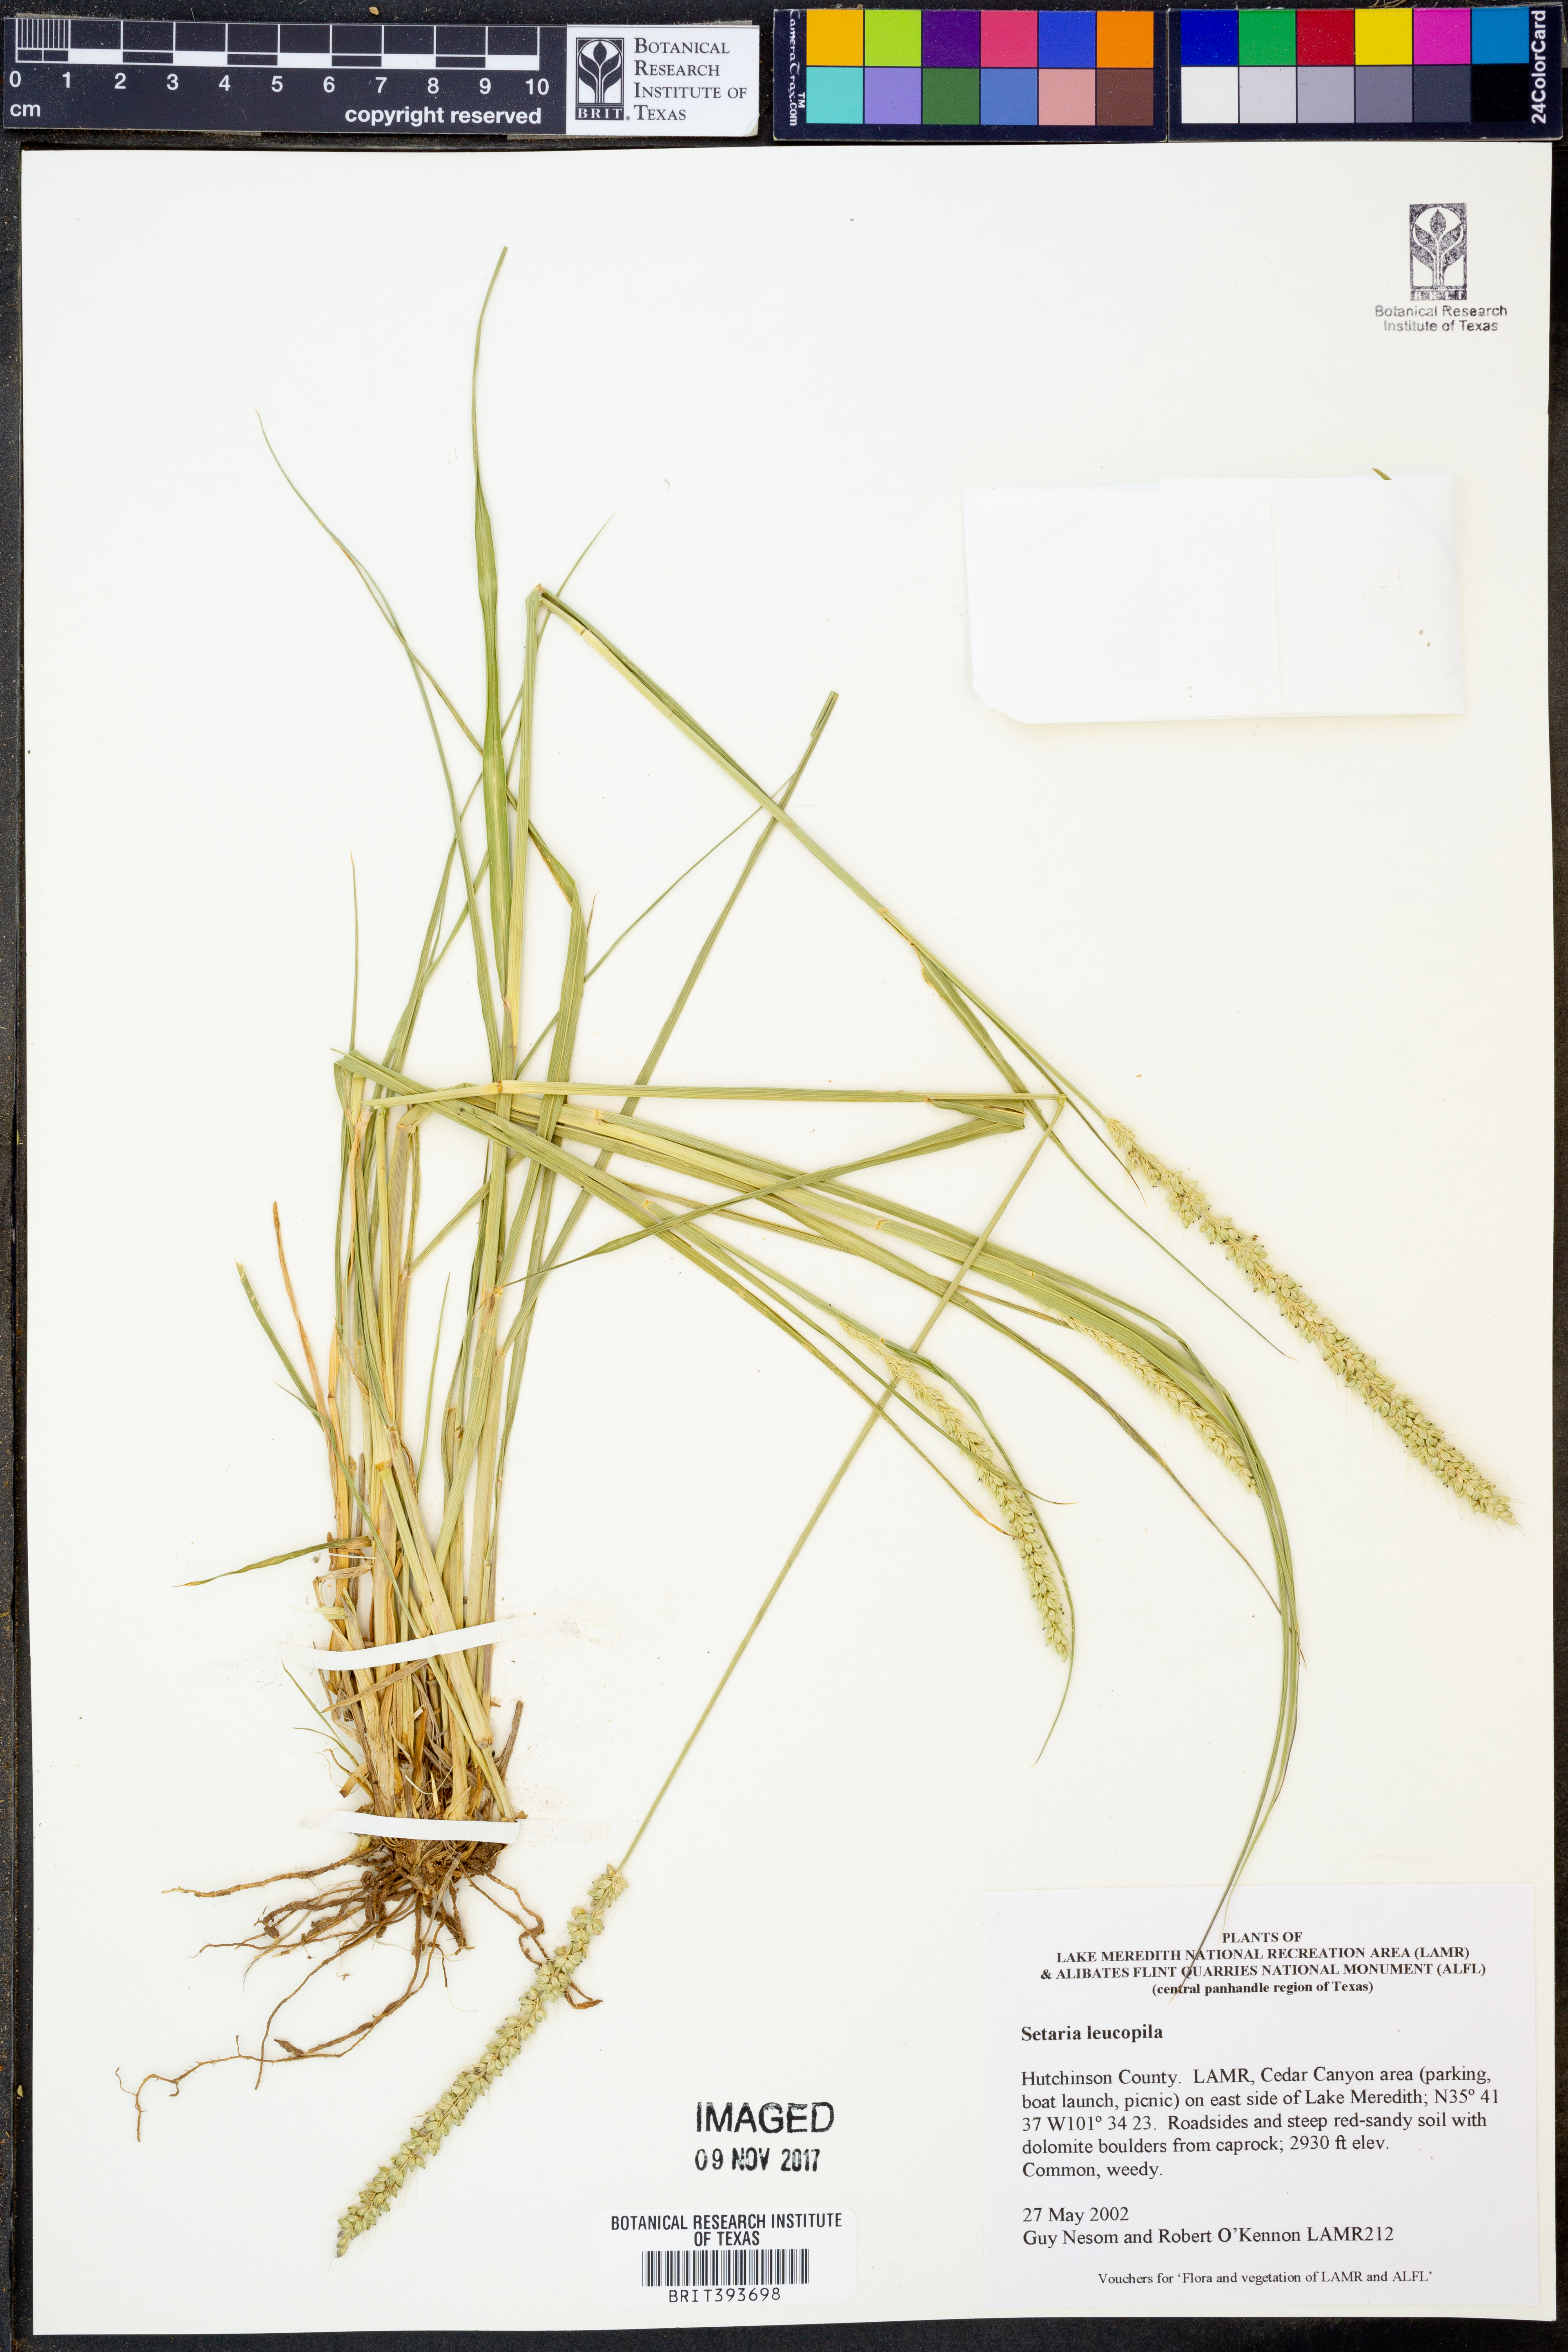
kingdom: Plantae
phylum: Tracheophyta
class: Liliopsida
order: Poales
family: Poaceae
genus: Setaria
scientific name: Setaria leucopila
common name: Plains bristle grass
